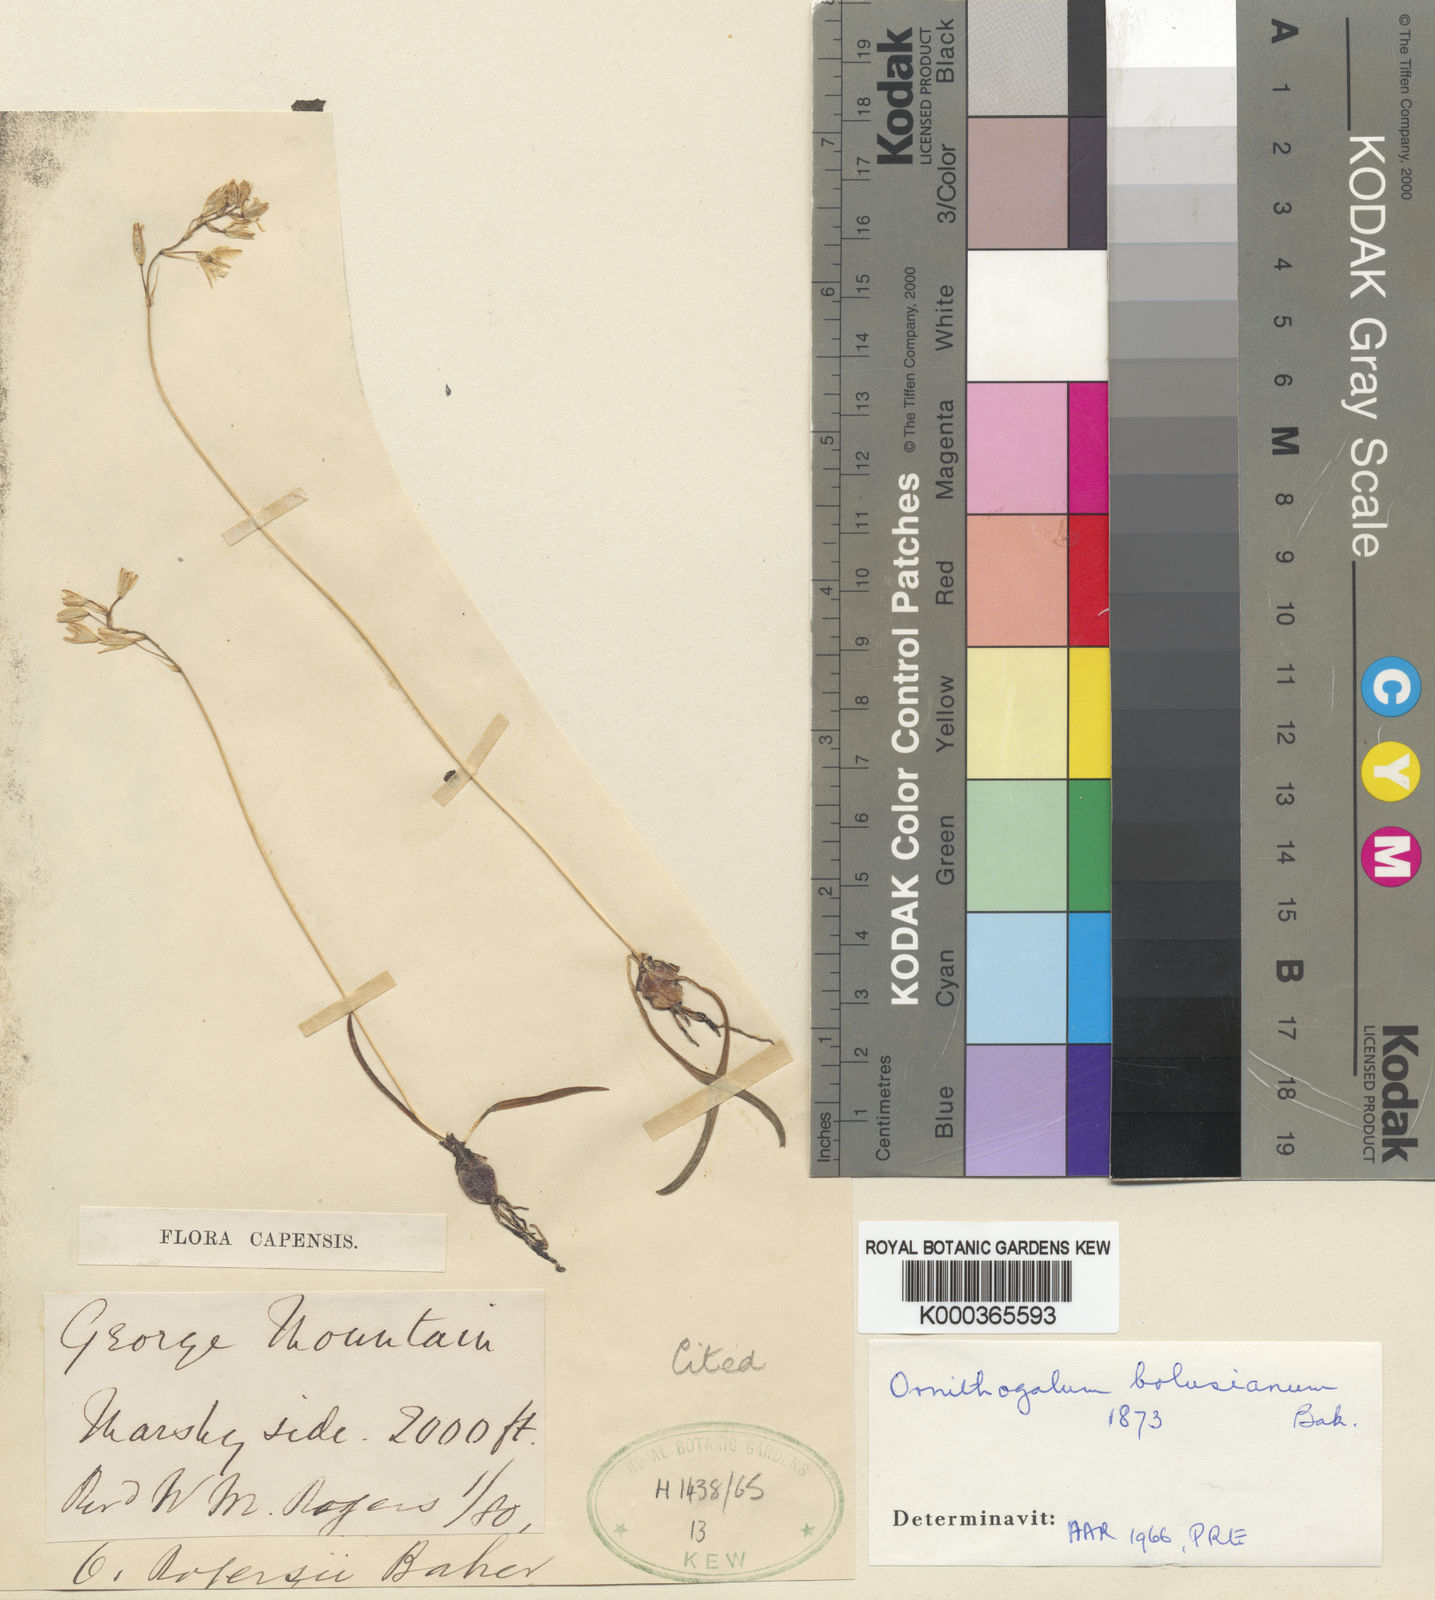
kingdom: Plantae
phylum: Tracheophyta
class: Liliopsida
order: Asparagales
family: Asparagaceae
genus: Ornithogalum
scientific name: Ornithogalum rogersii
